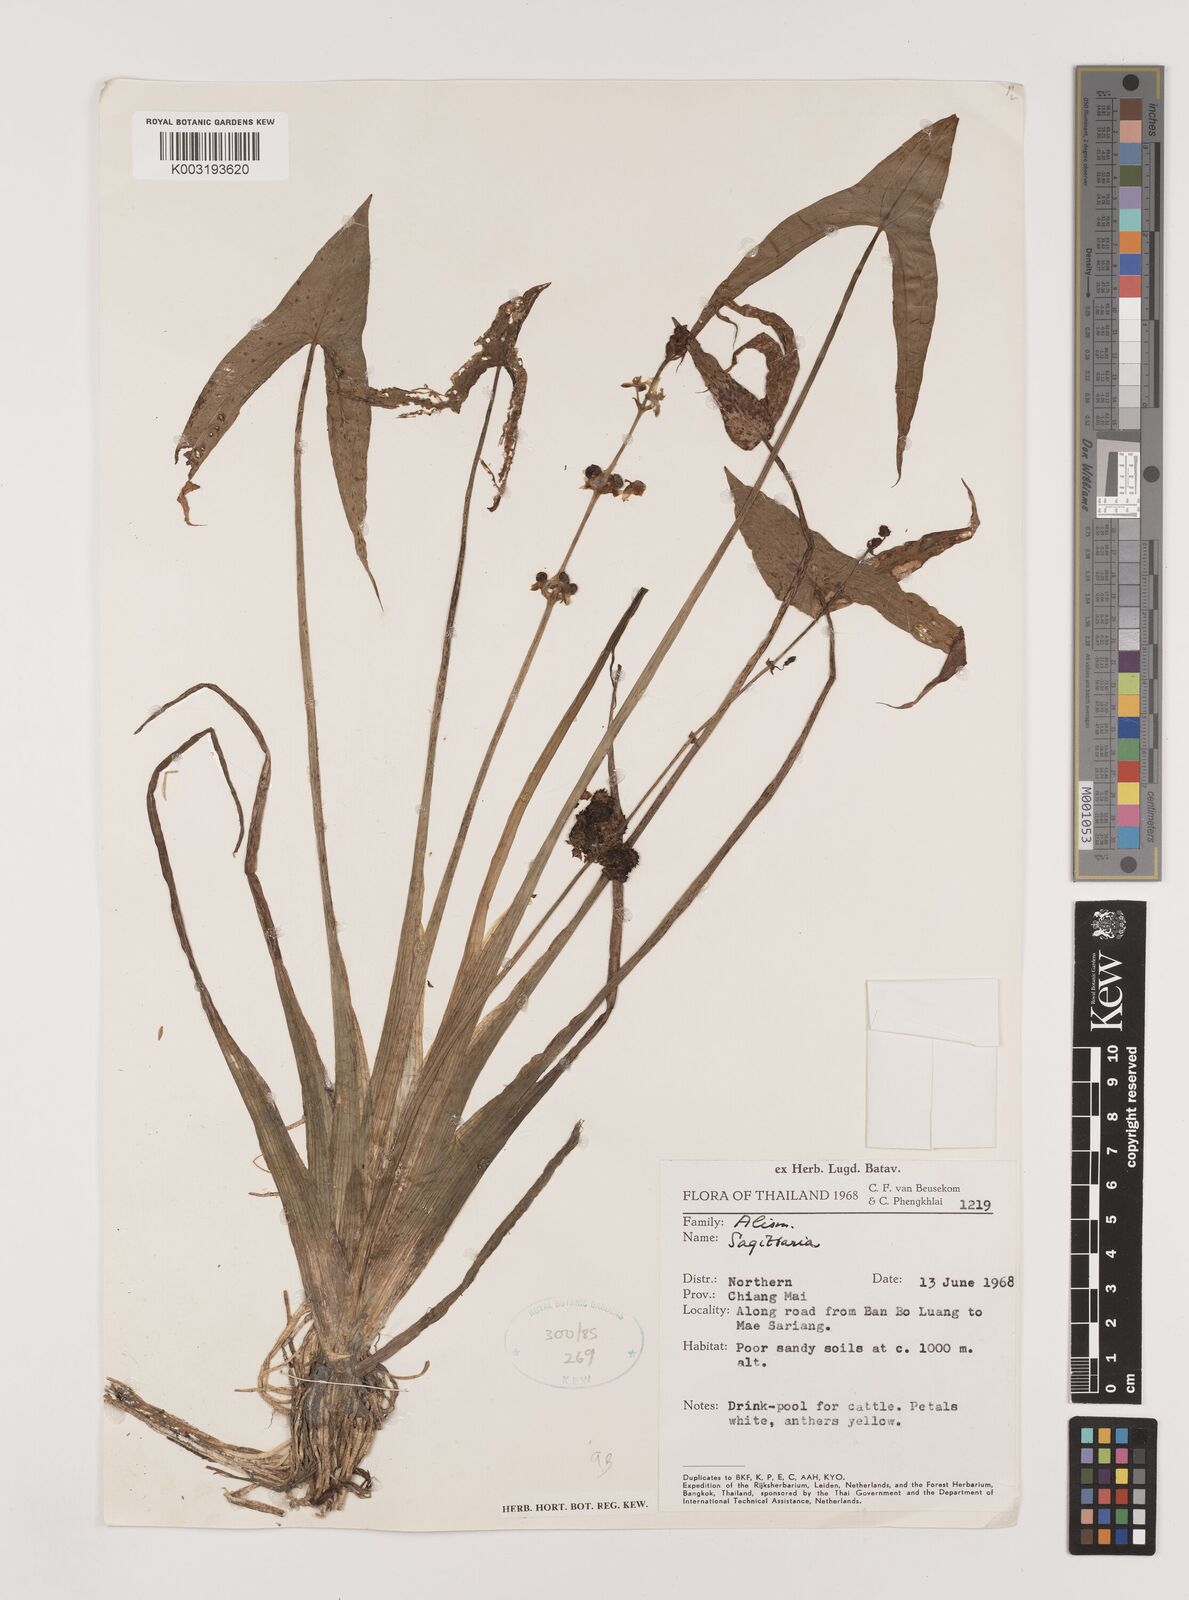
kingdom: Plantae
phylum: Tracheophyta
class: Liliopsida
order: Alismatales
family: Alismataceae
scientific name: Alismataceae
